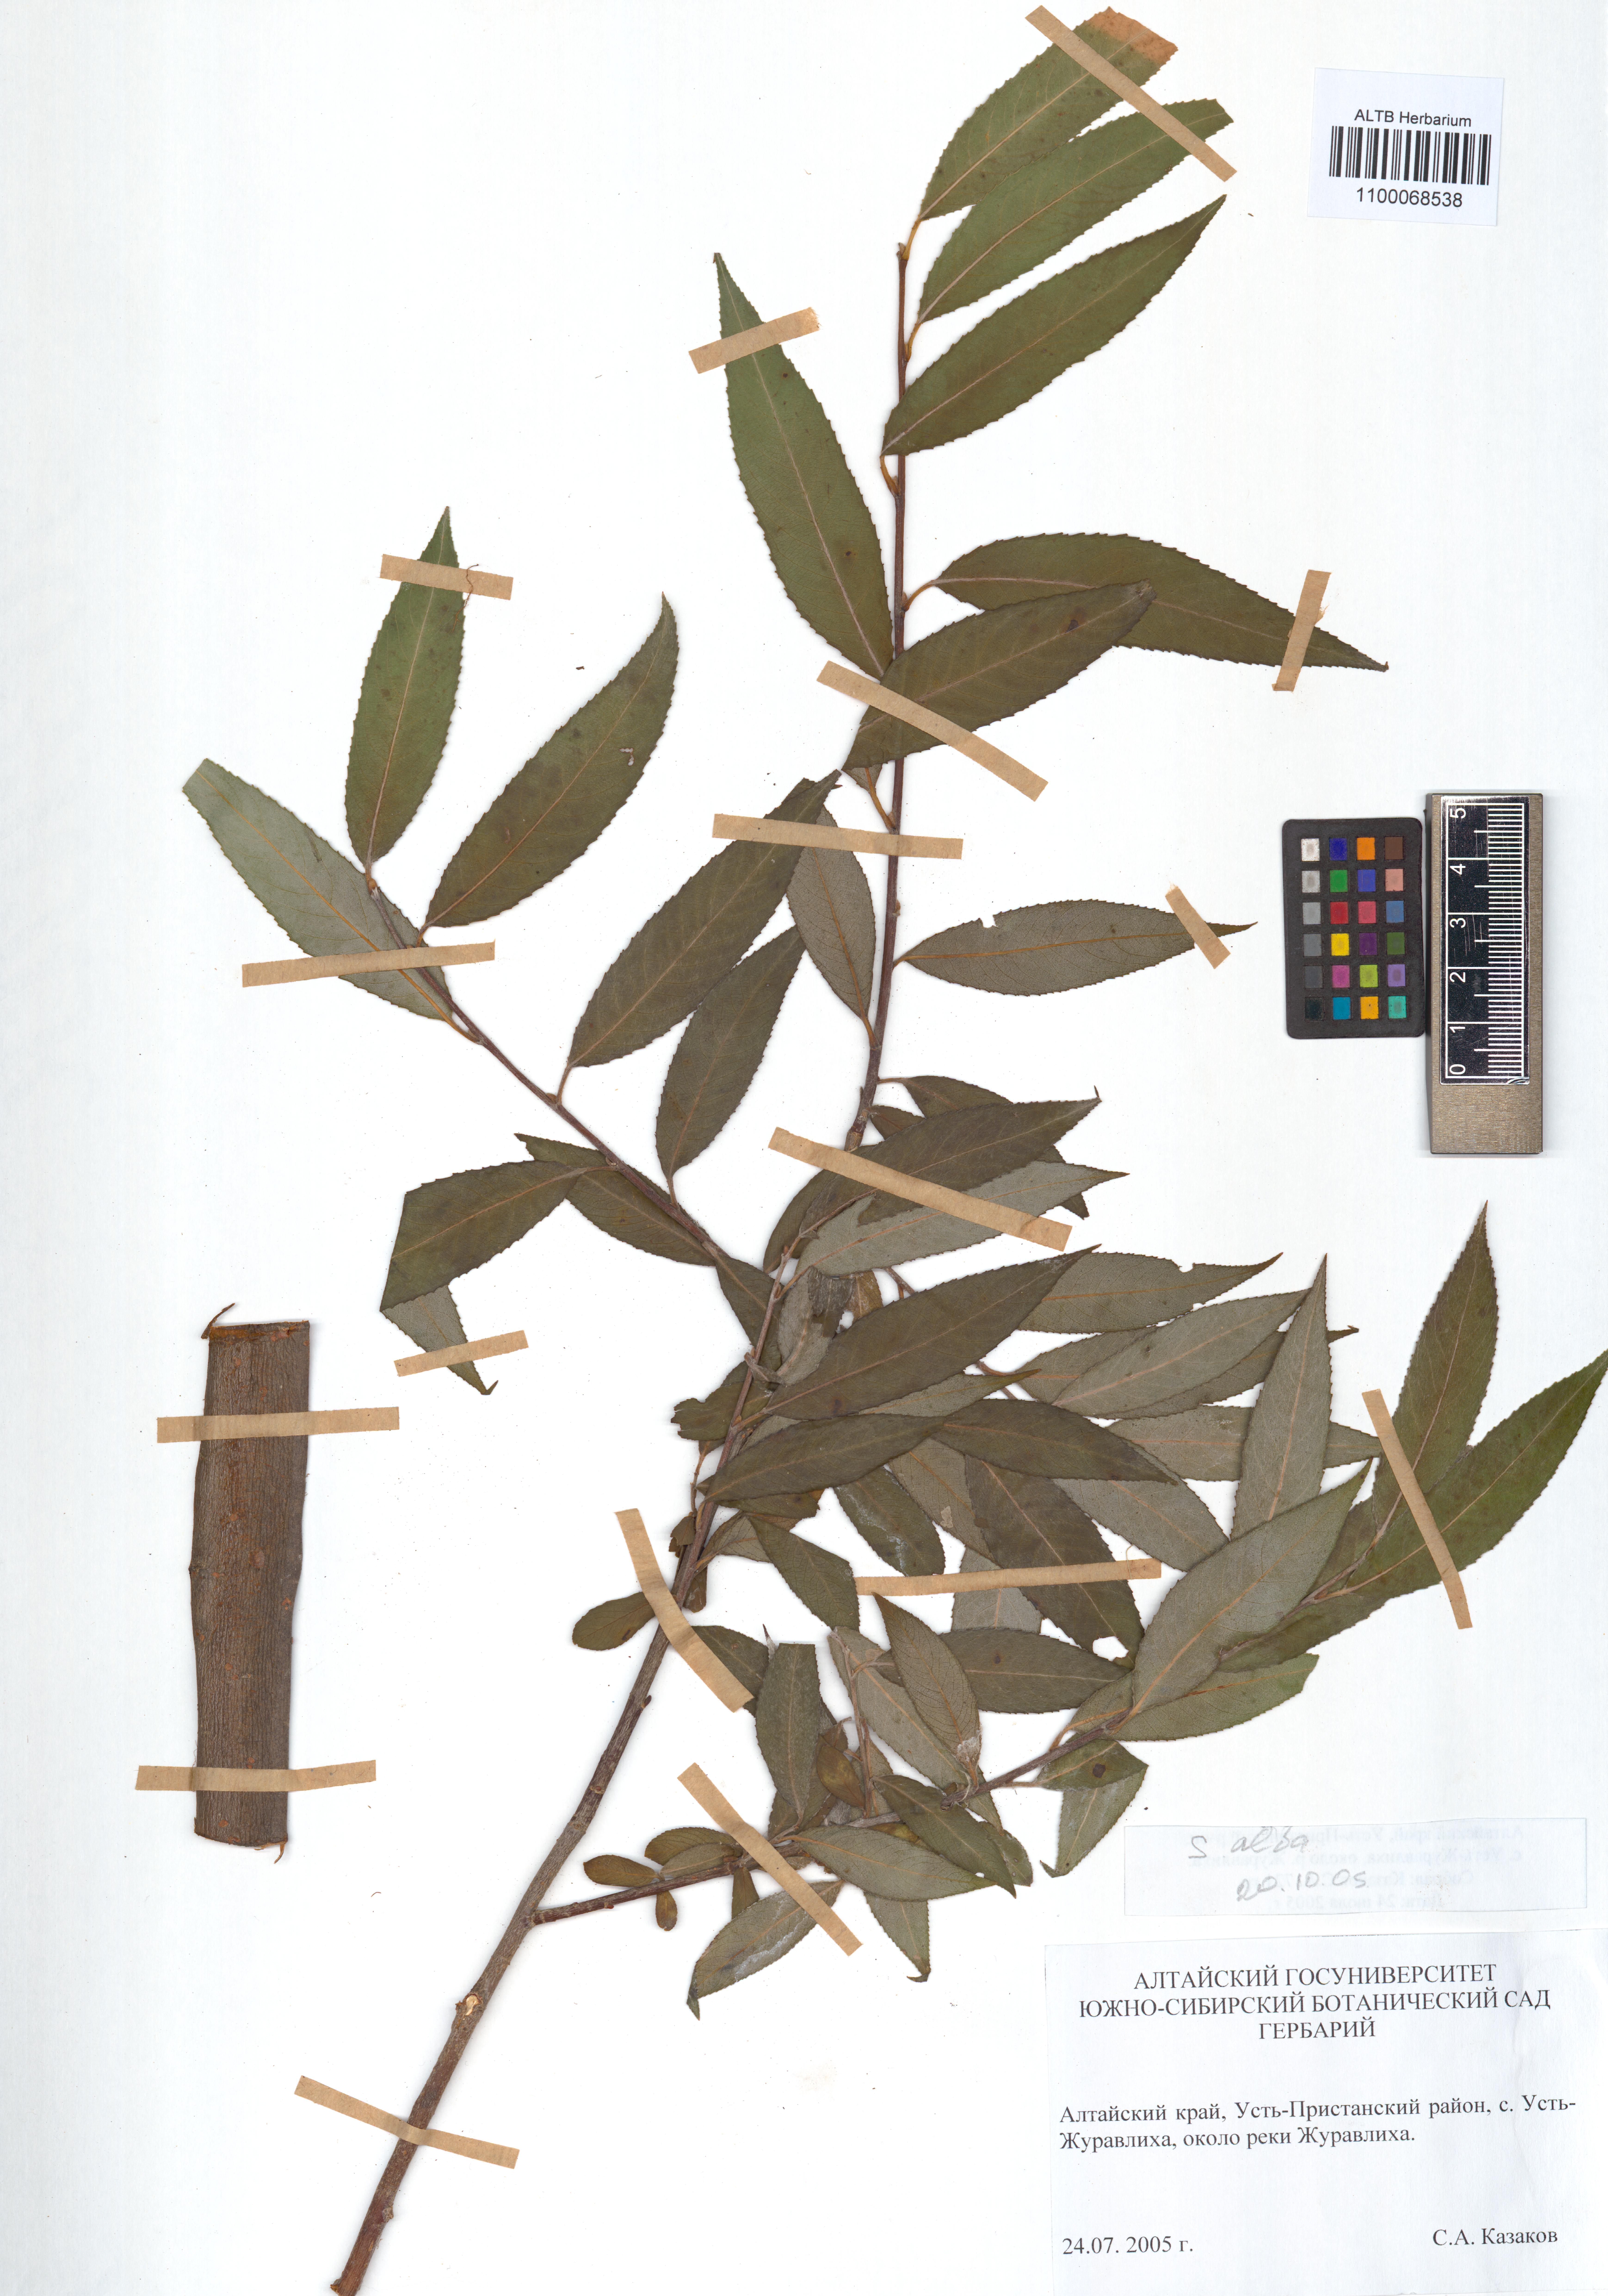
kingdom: Plantae
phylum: Tracheophyta
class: Magnoliopsida
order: Malpighiales
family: Salicaceae
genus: Salix
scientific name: Salix alba
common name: White willow
